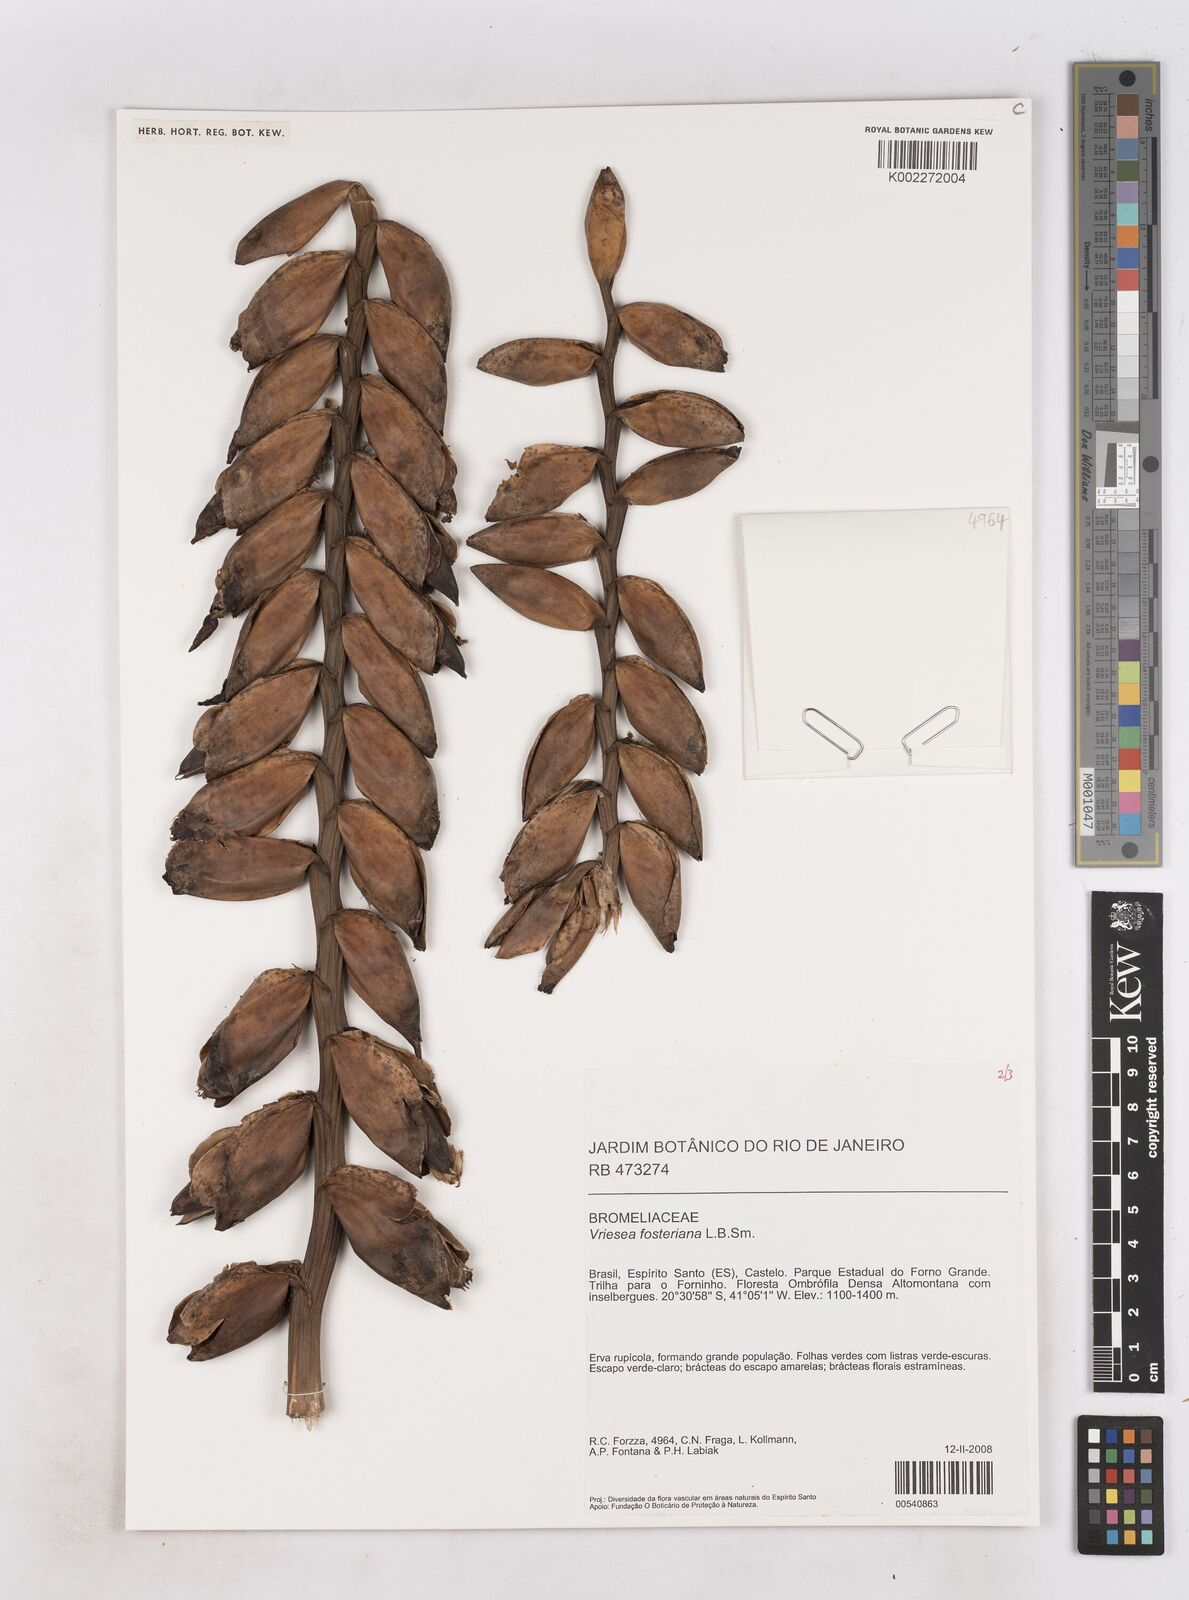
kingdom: Plantae
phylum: Tracheophyta
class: Liliopsida
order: Poales
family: Bromeliaceae
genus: Vriesea
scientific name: Vriesea fosteriana
